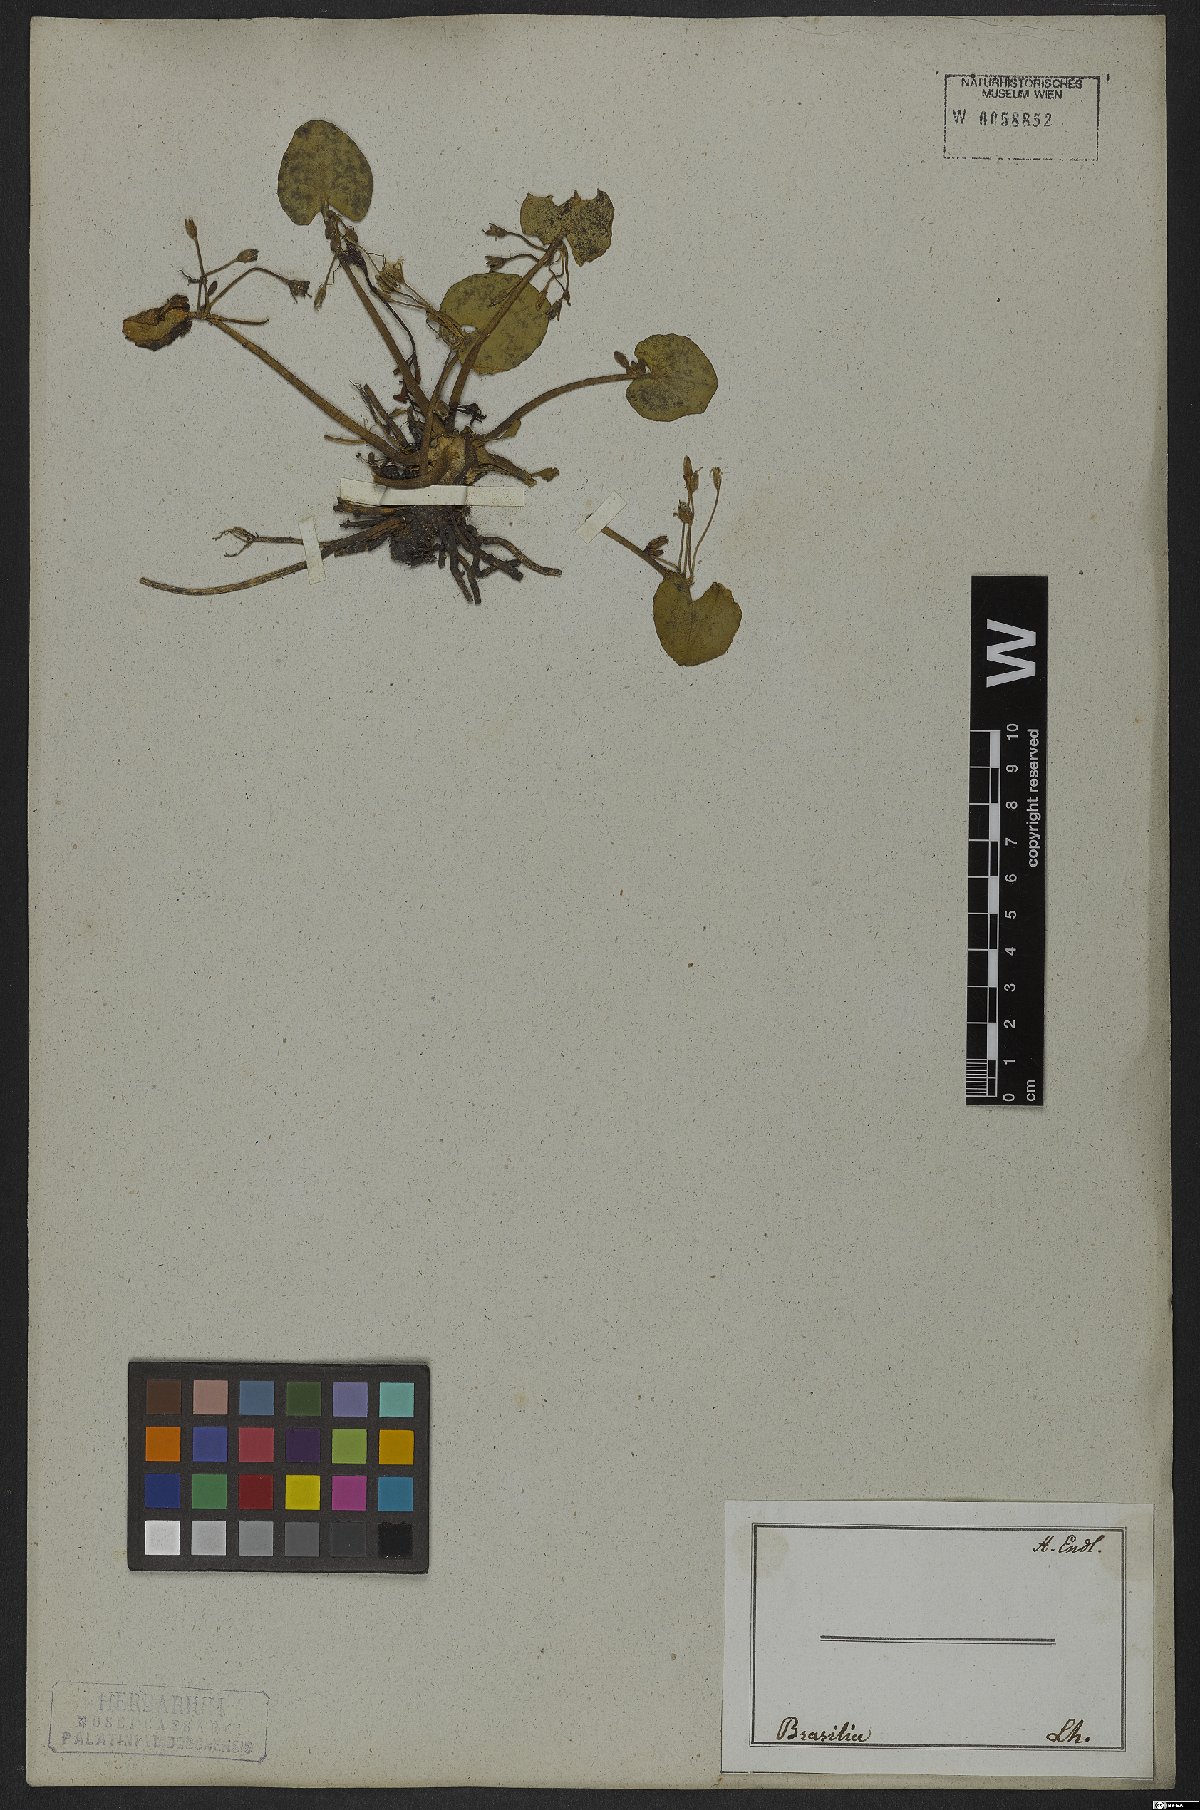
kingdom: Plantae
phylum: Tracheophyta
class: Magnoliopsida
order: Asterales
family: Menyanthaceae
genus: Nymphoides
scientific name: Nymphoides humboldtiana
